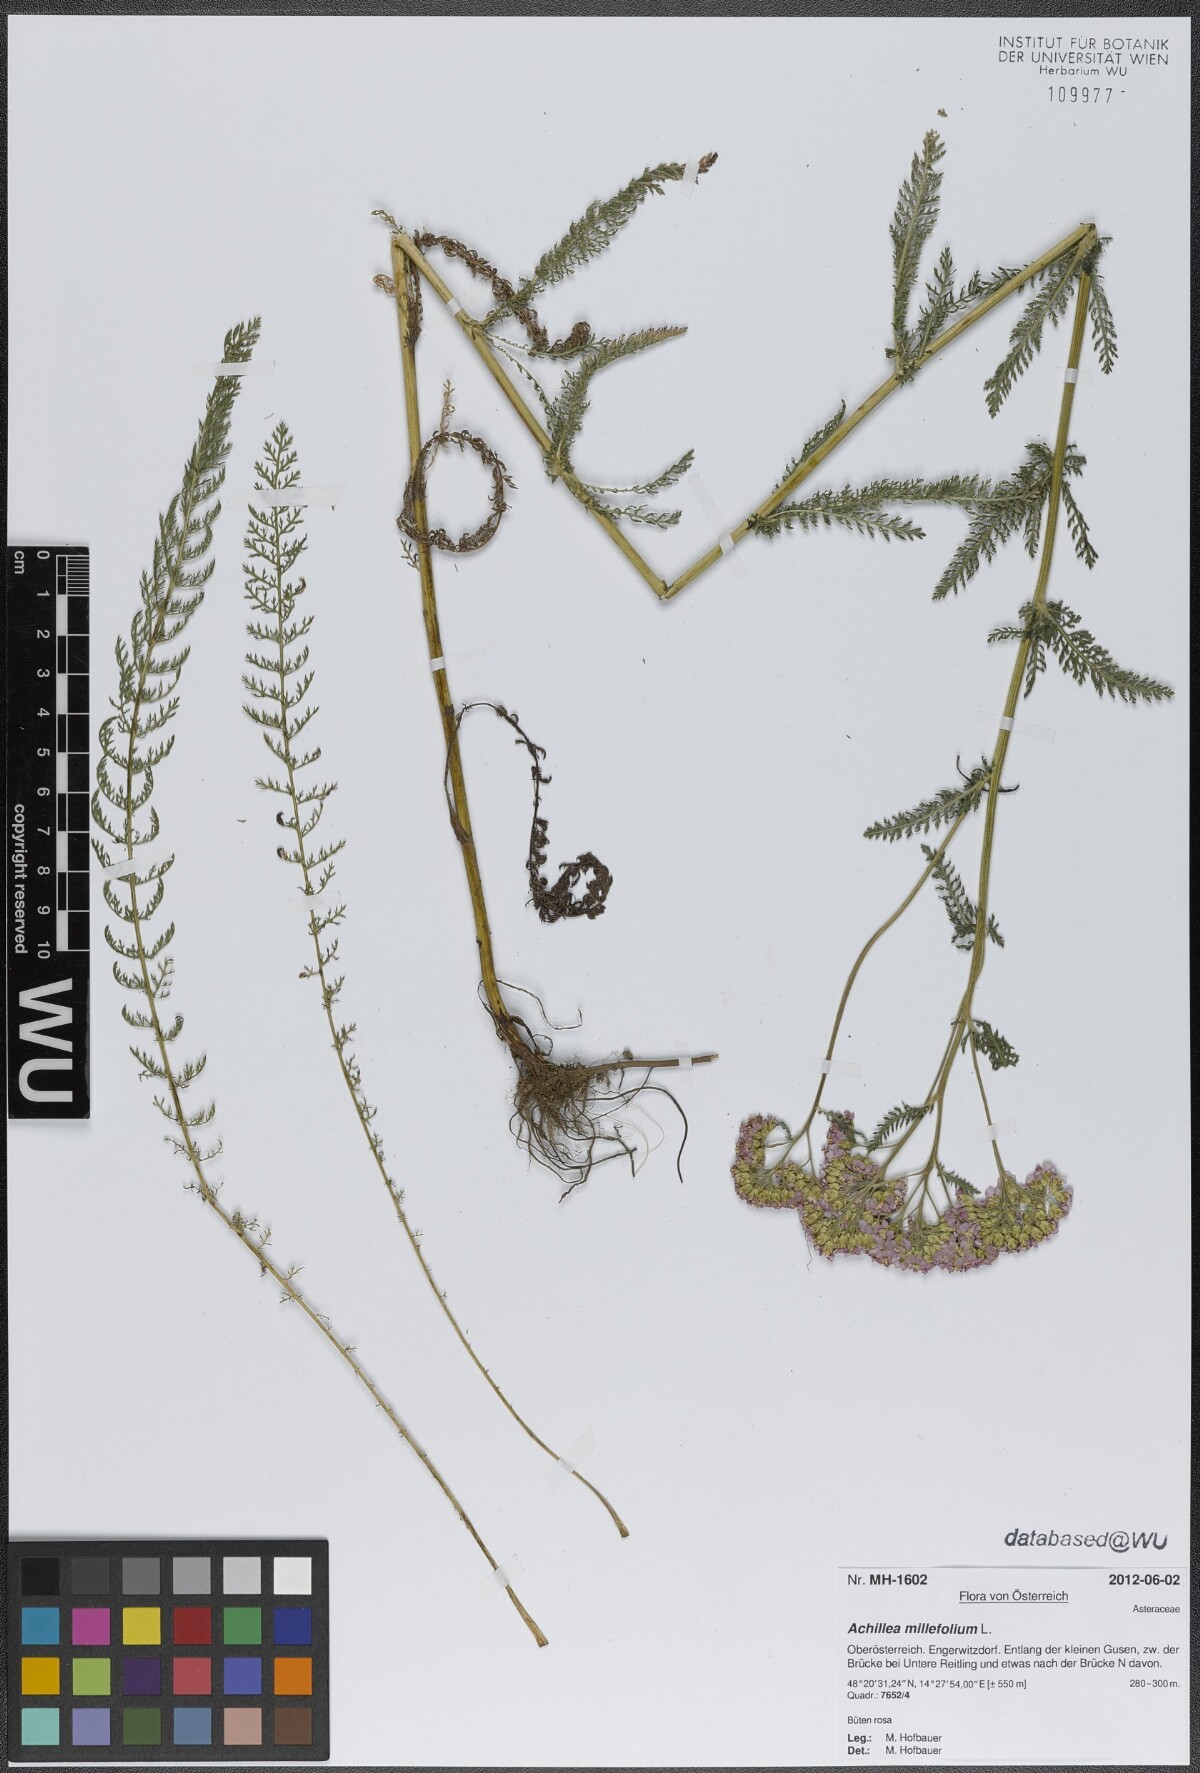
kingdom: Plantae
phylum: Tracheophyta
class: Magnoliopsida
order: Asterales
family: Asteraceae
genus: Achillea
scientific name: Achillea millefolium
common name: Yarrow
